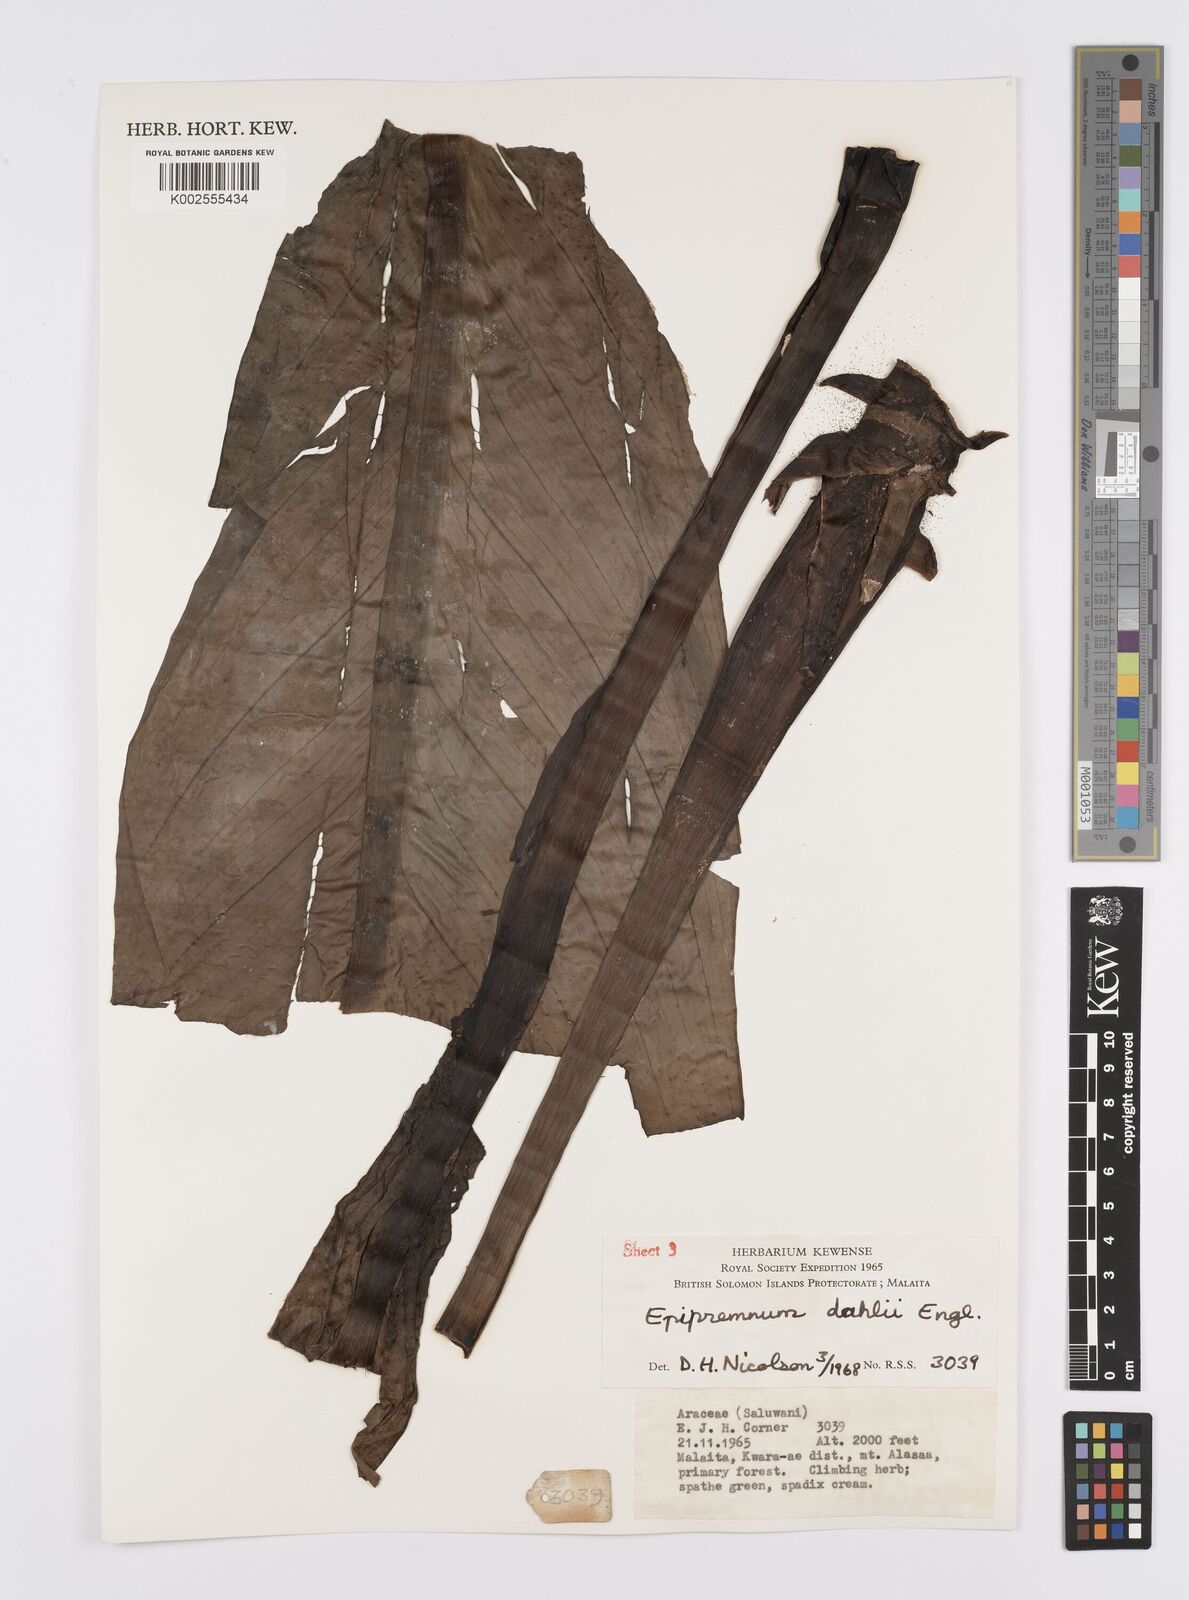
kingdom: Plantae
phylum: Tracheophyta
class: Liliopsida
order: Alismatales
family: Araceae
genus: Epipremnum
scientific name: Epipremnum dahlii
